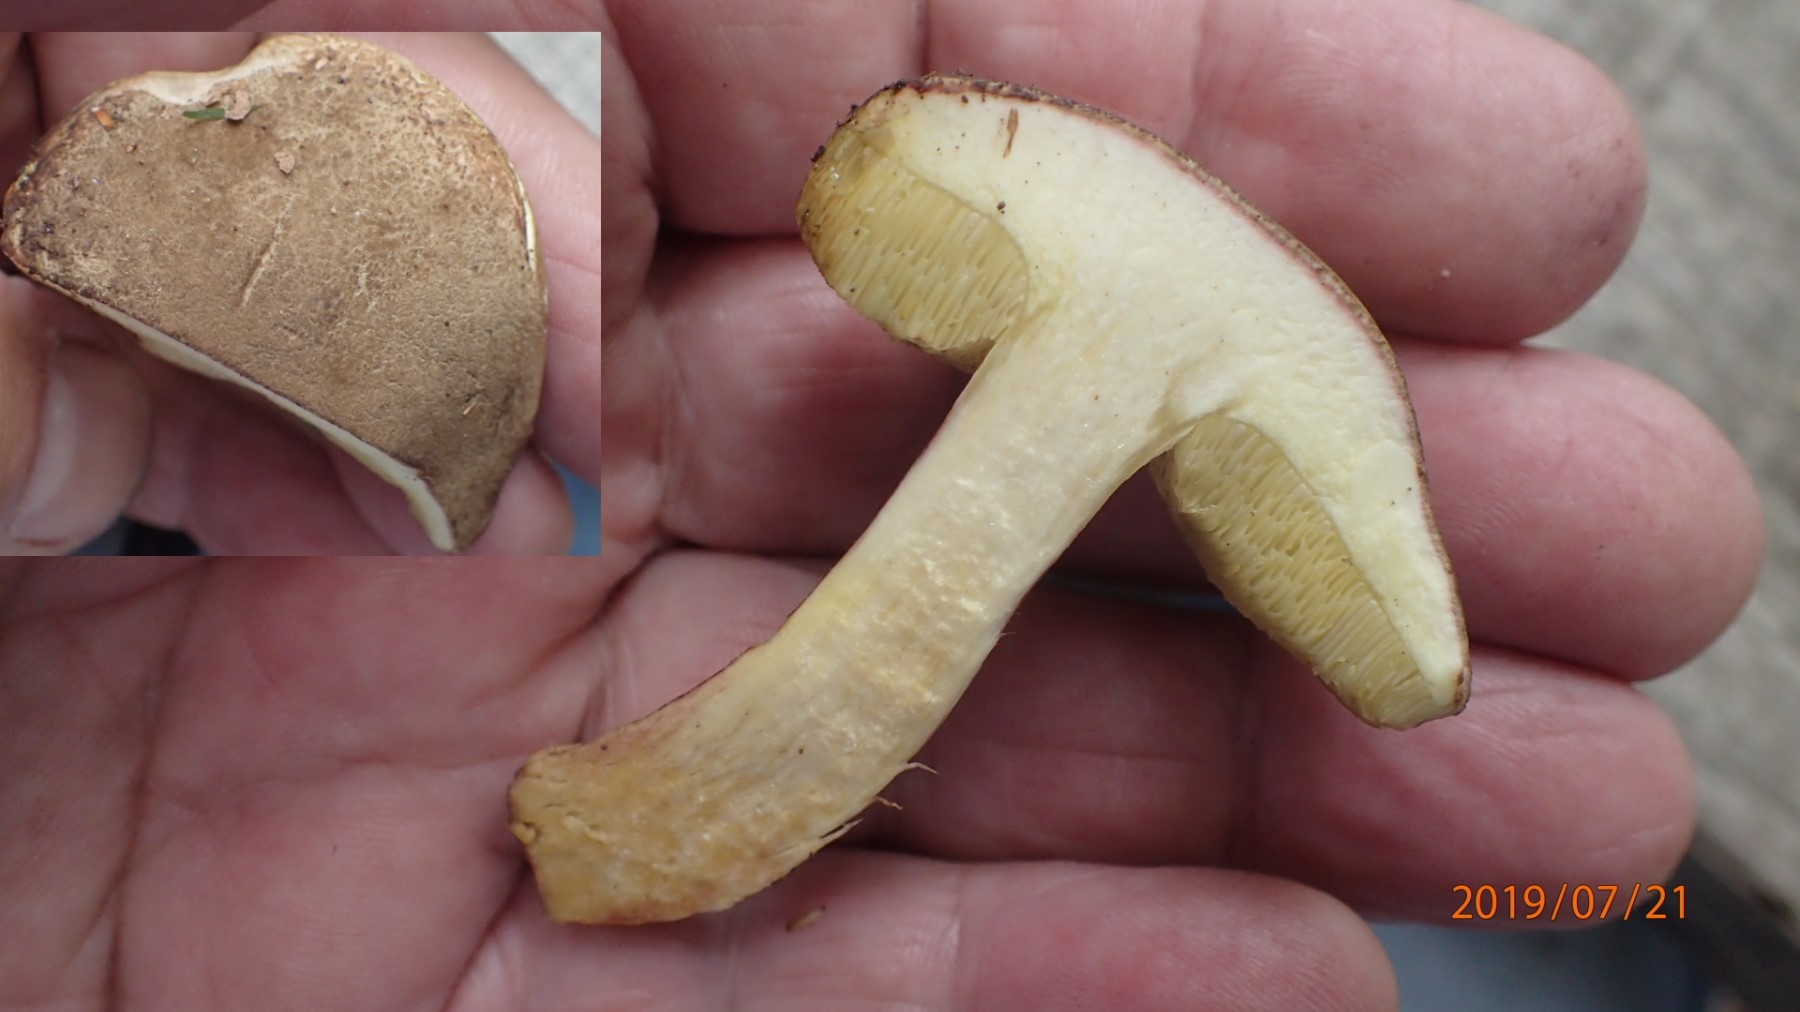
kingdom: Fungi
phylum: Basidiomycota
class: Agaricomycetes
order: Boletales
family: Boletaceae
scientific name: Boletaceae
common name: rørhatfamilien
